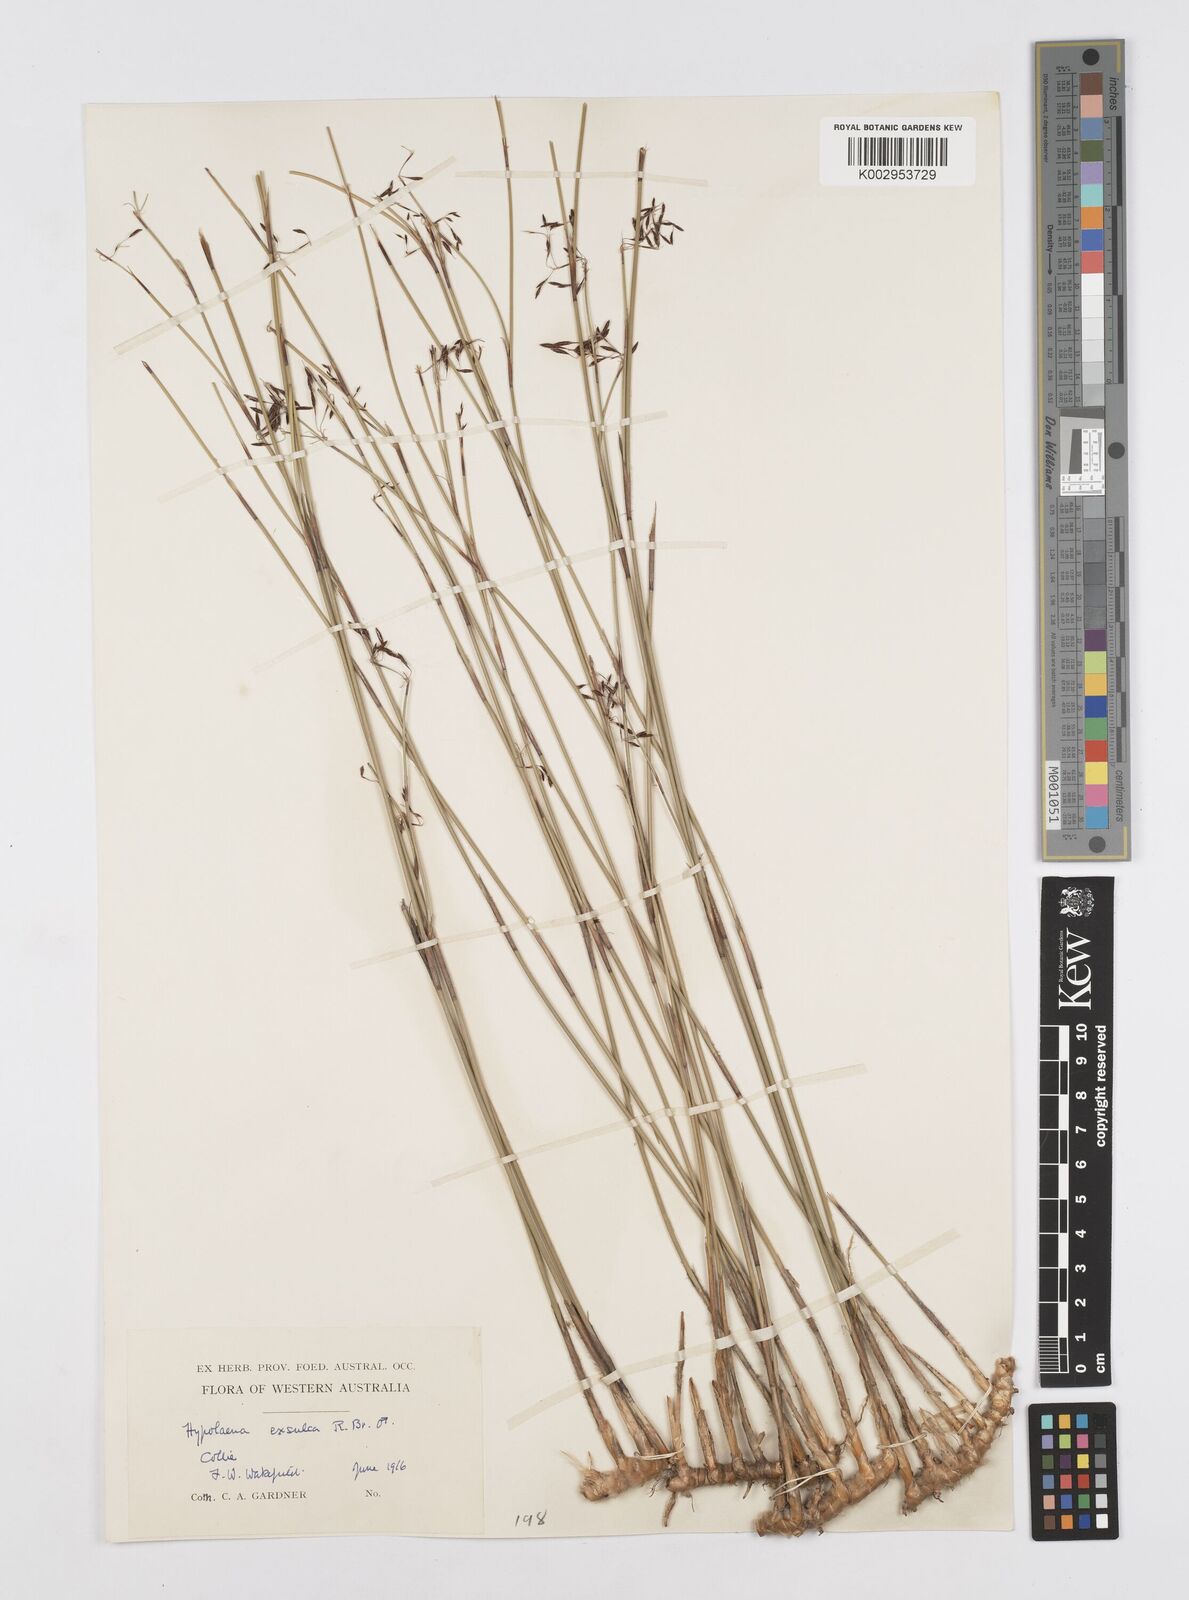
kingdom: Plantae
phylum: Tracheophyta
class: Liliopsida
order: Poales
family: Restionaceae
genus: Hypolaena
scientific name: Hypolaena exsulca
